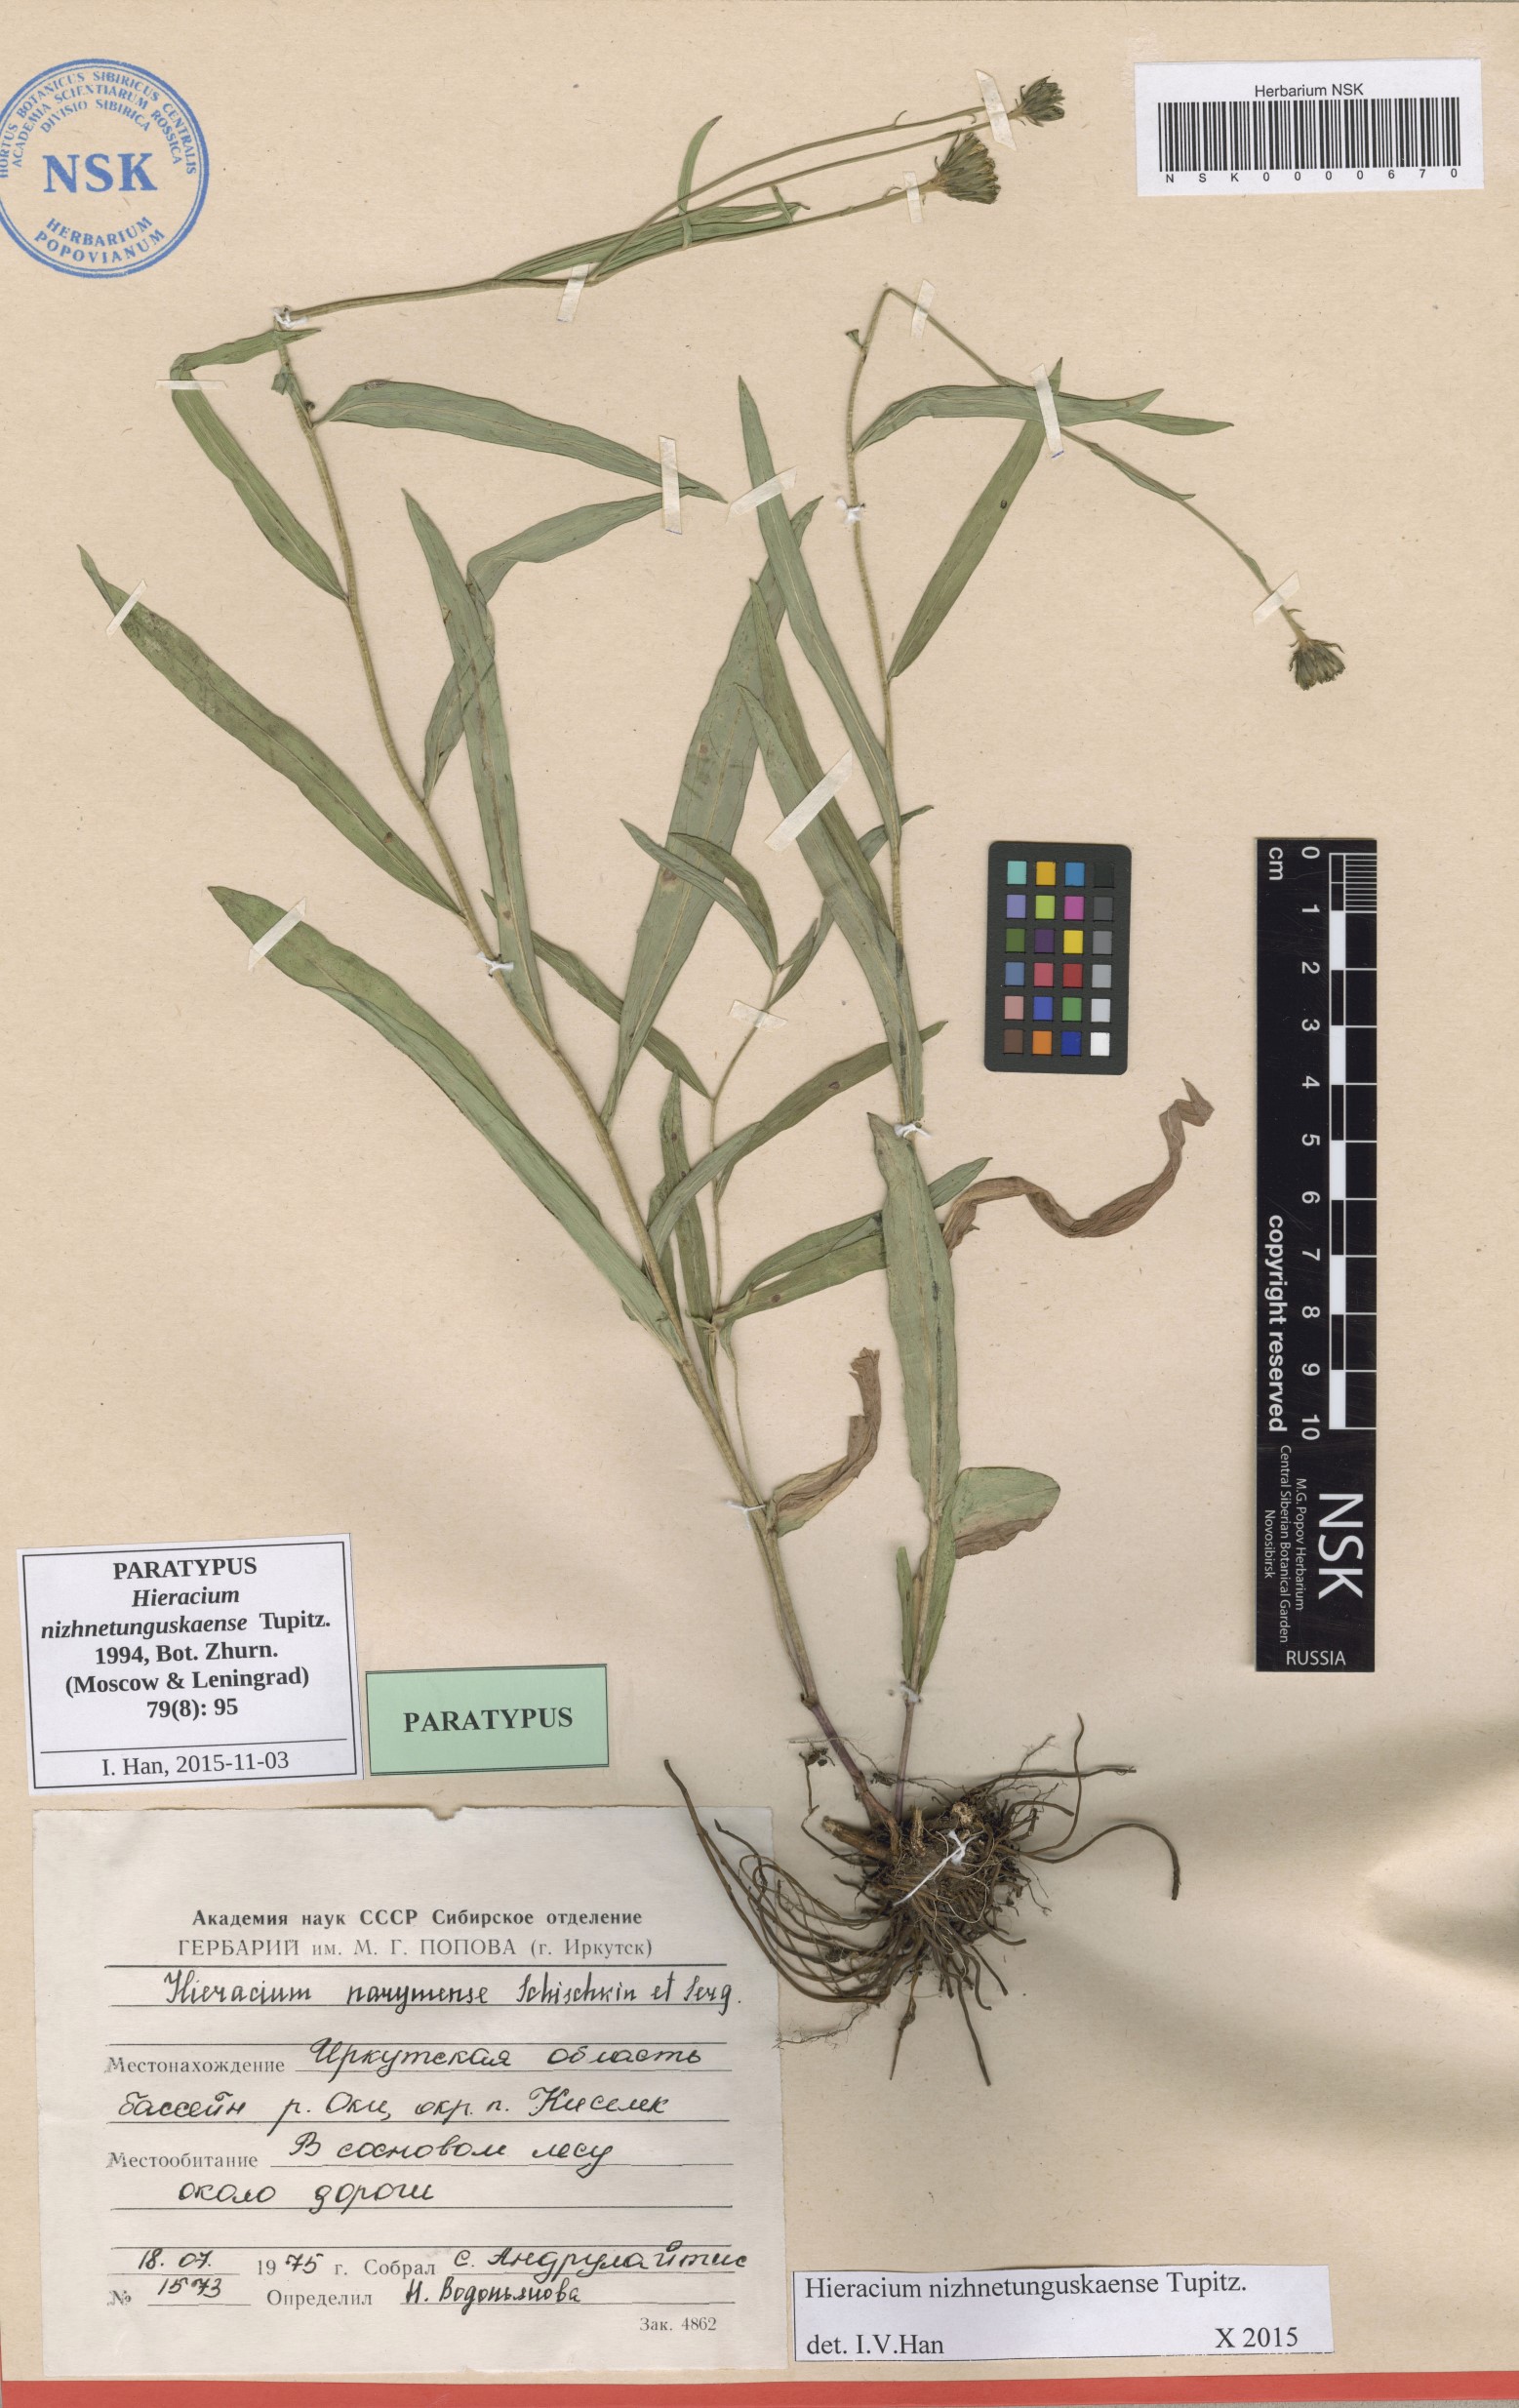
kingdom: Plantae
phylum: Tracheophyta
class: Magnoliopsida
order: Asterales
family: Asteraceae
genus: Hieracium
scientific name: Hieracium nizhnetunguskaense
